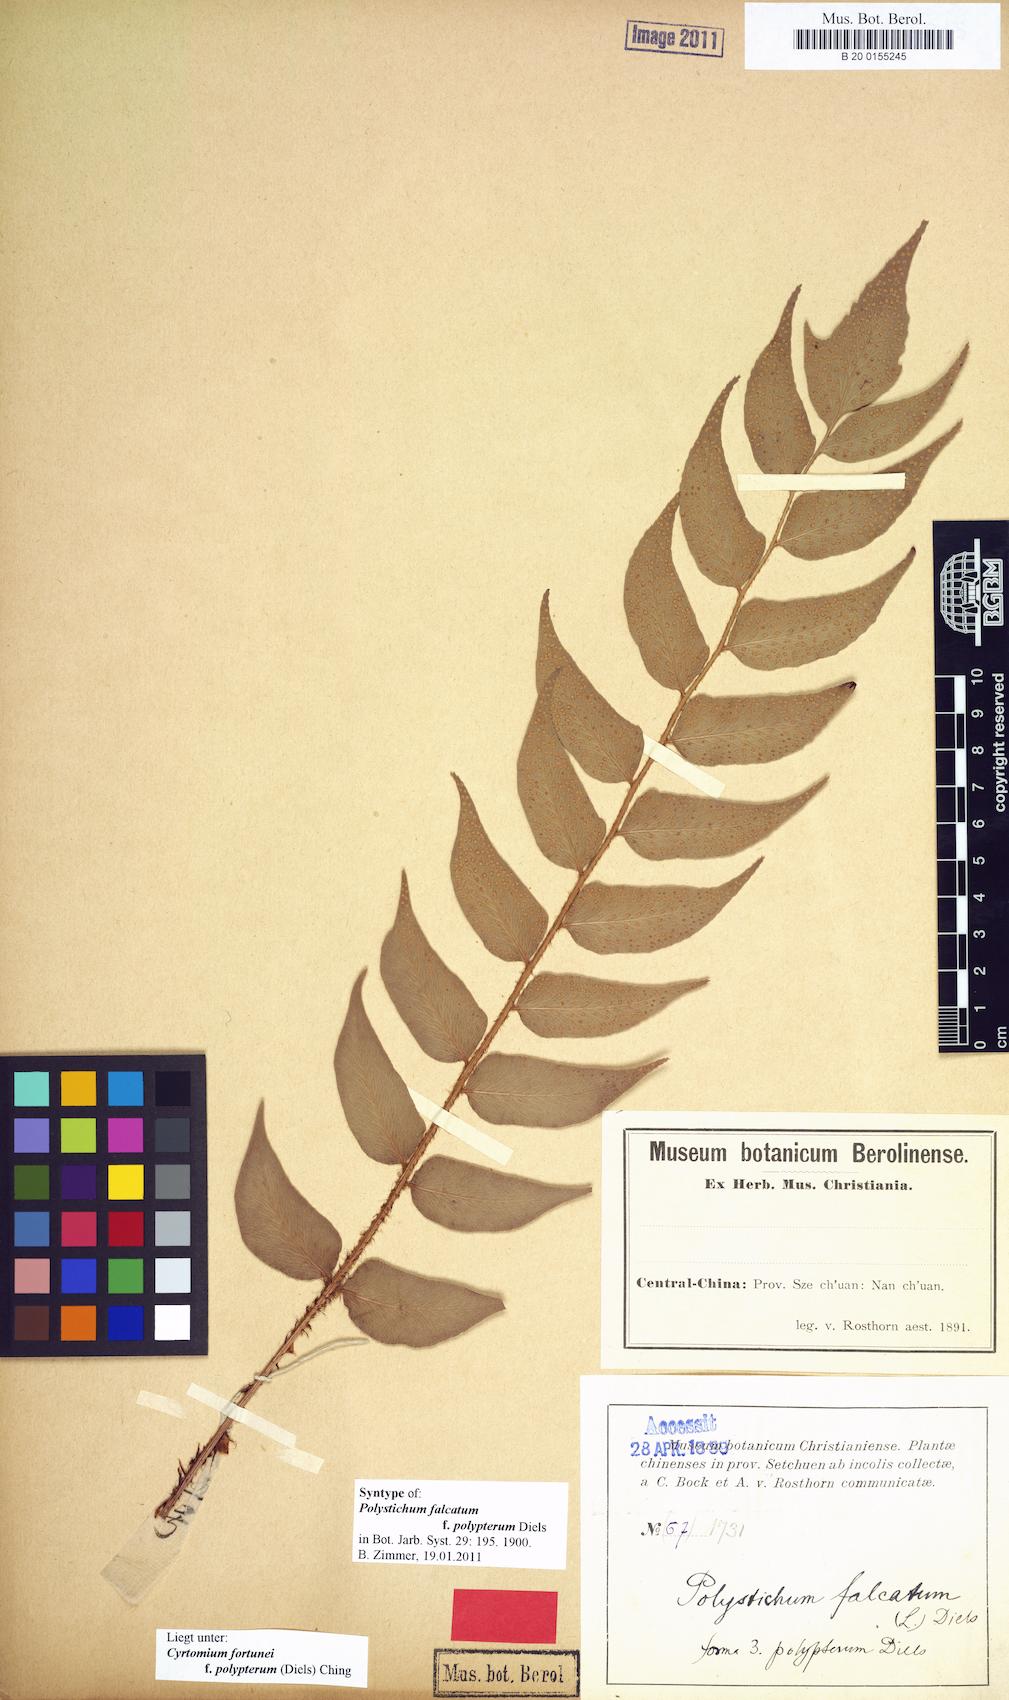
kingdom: Plantae
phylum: Tracheophyta
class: Polypodiopsida
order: Polypodiales
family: Dryopteridaceae
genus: Cyrtomium
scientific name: Cyrtomium fortunei
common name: Asian netvein hollyfern
